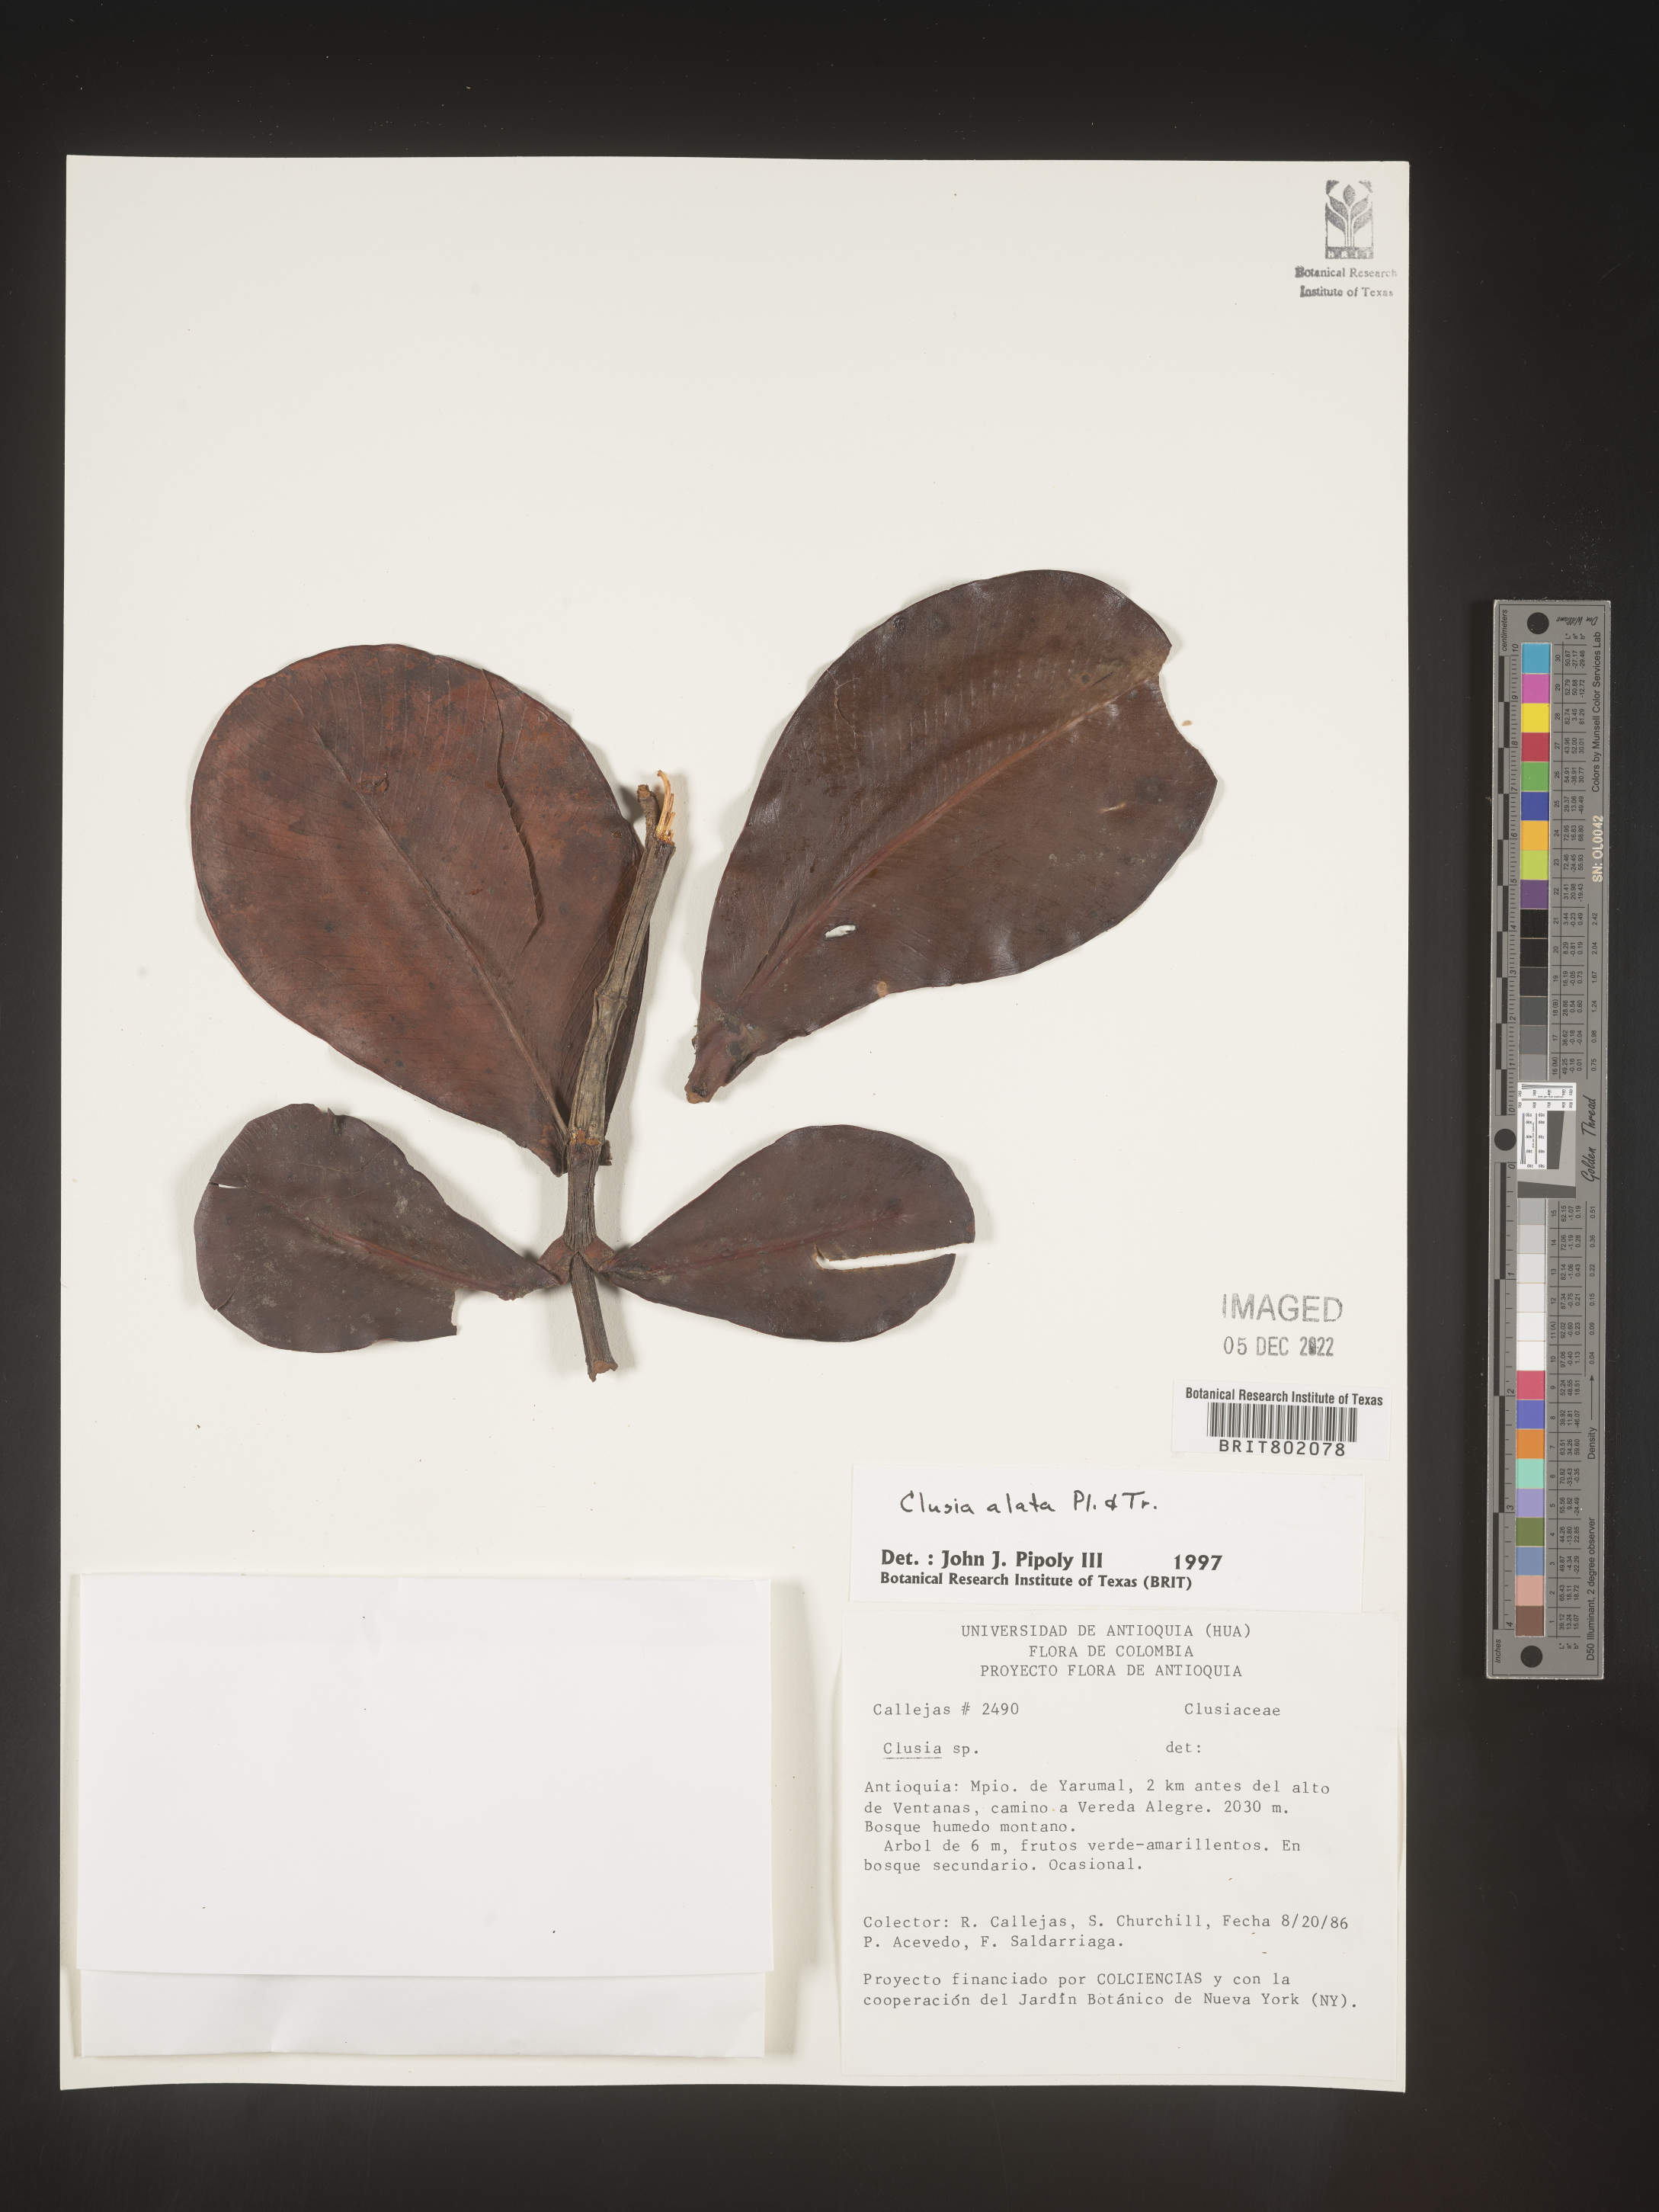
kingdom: Plantae
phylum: Tracheophyta
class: Magnoliopsida
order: Malpighiales
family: Clusiaceae
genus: Clusia
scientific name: Clusia alata
